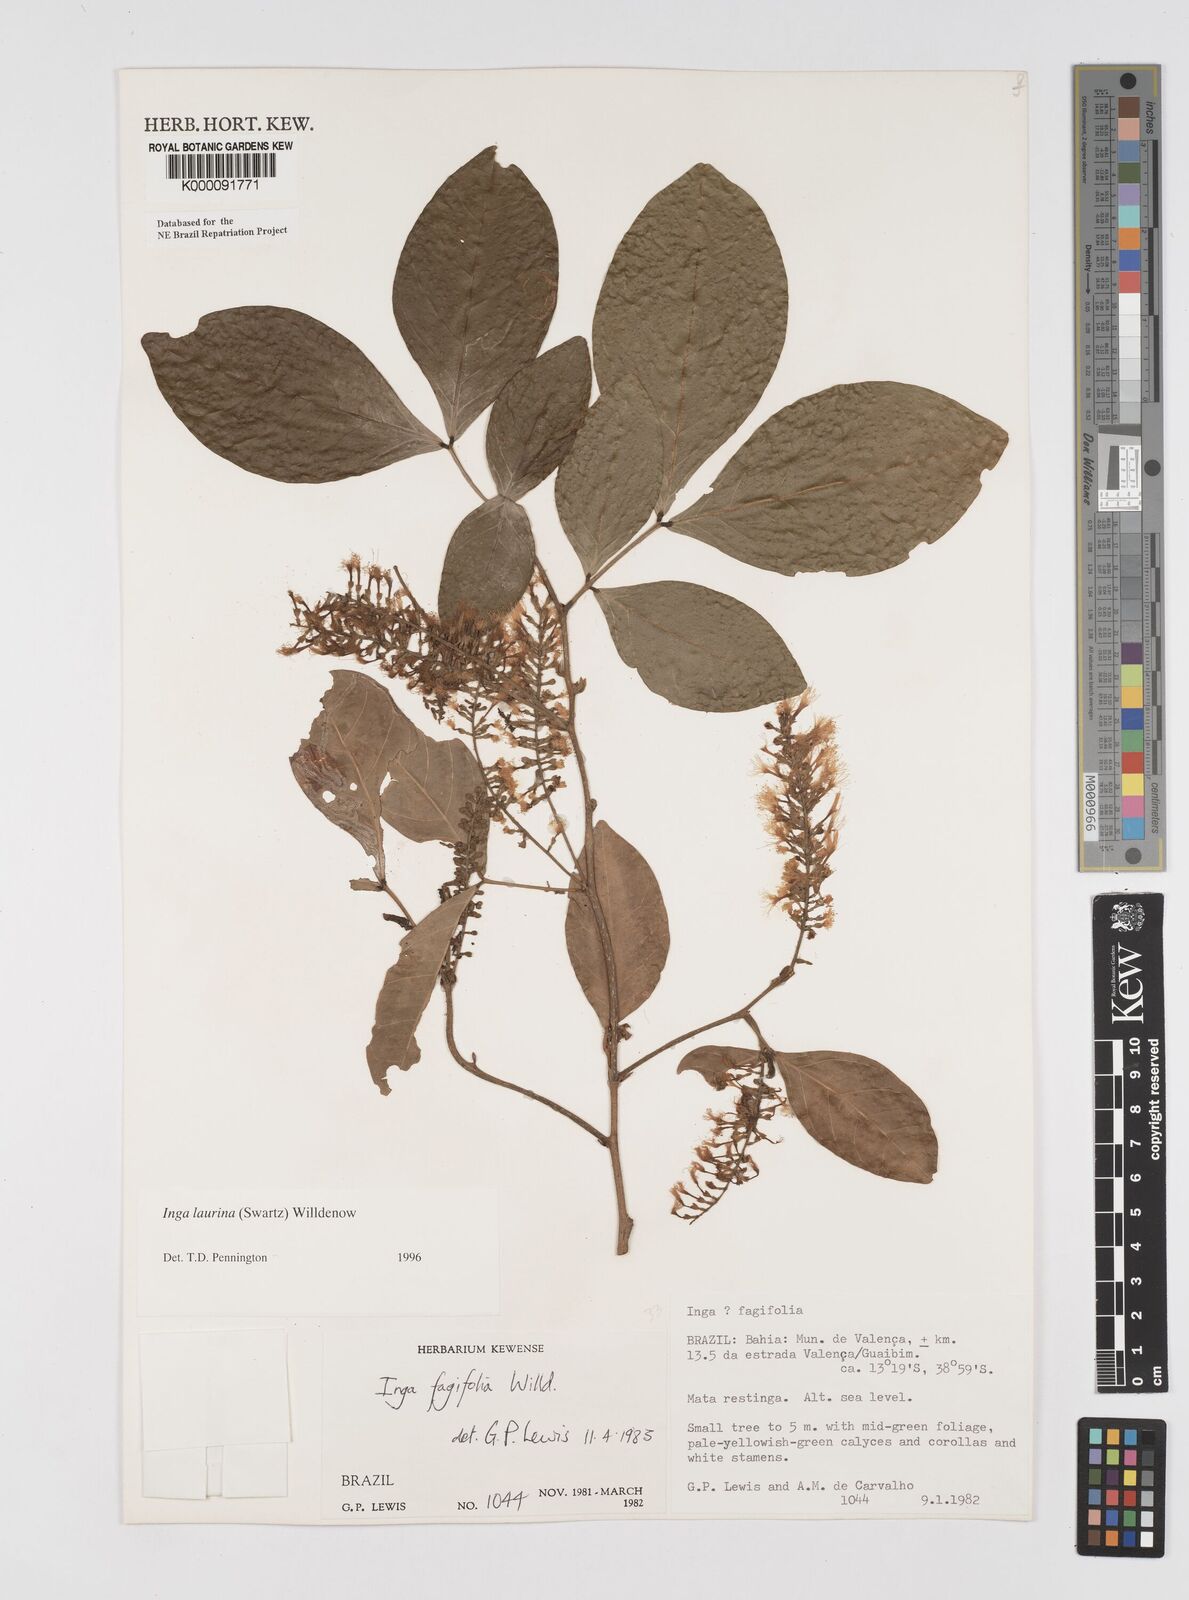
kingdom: Plantae
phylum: Tracheophyta
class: Magnoliopsida
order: Fabales
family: Fabaceae
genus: Inga
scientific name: Inga laurina
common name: Red wood
